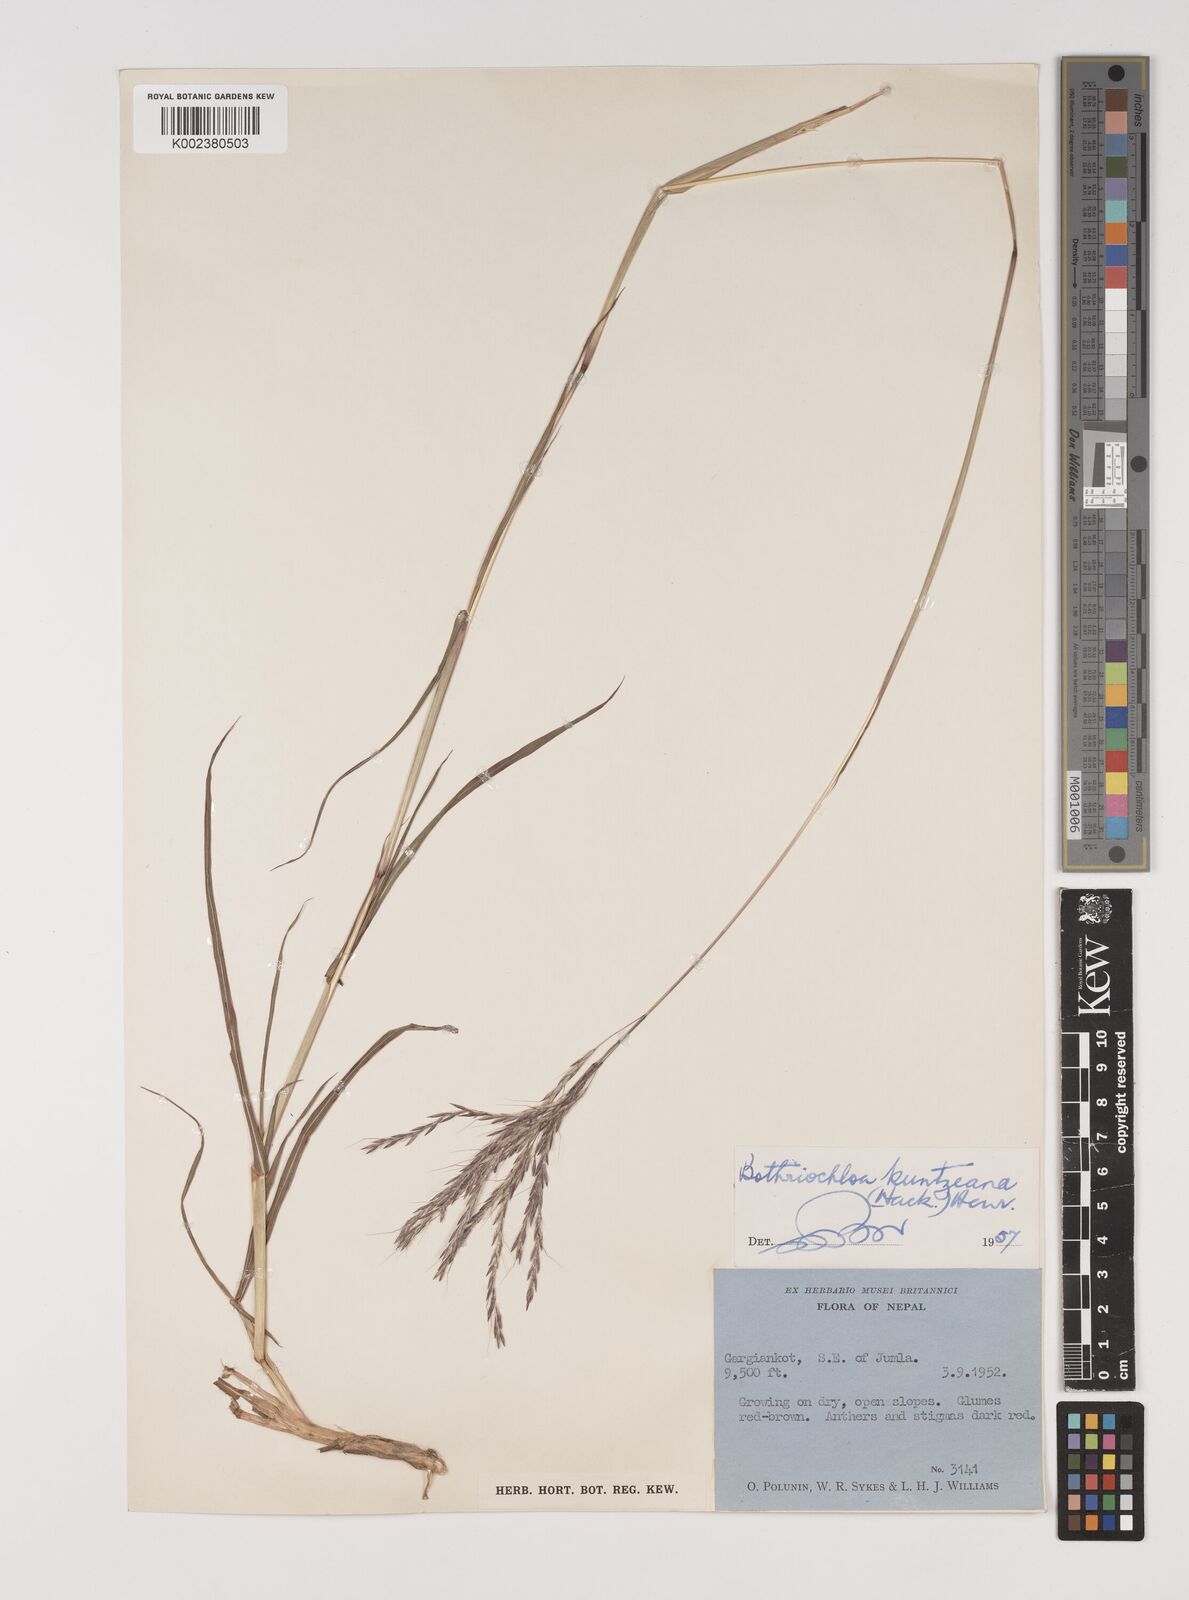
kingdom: Plantae
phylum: Tracheophyta
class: Liliopsida
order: Poales
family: Poaceae
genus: Bothriochloa
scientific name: Bothriochloa kuntzeana
